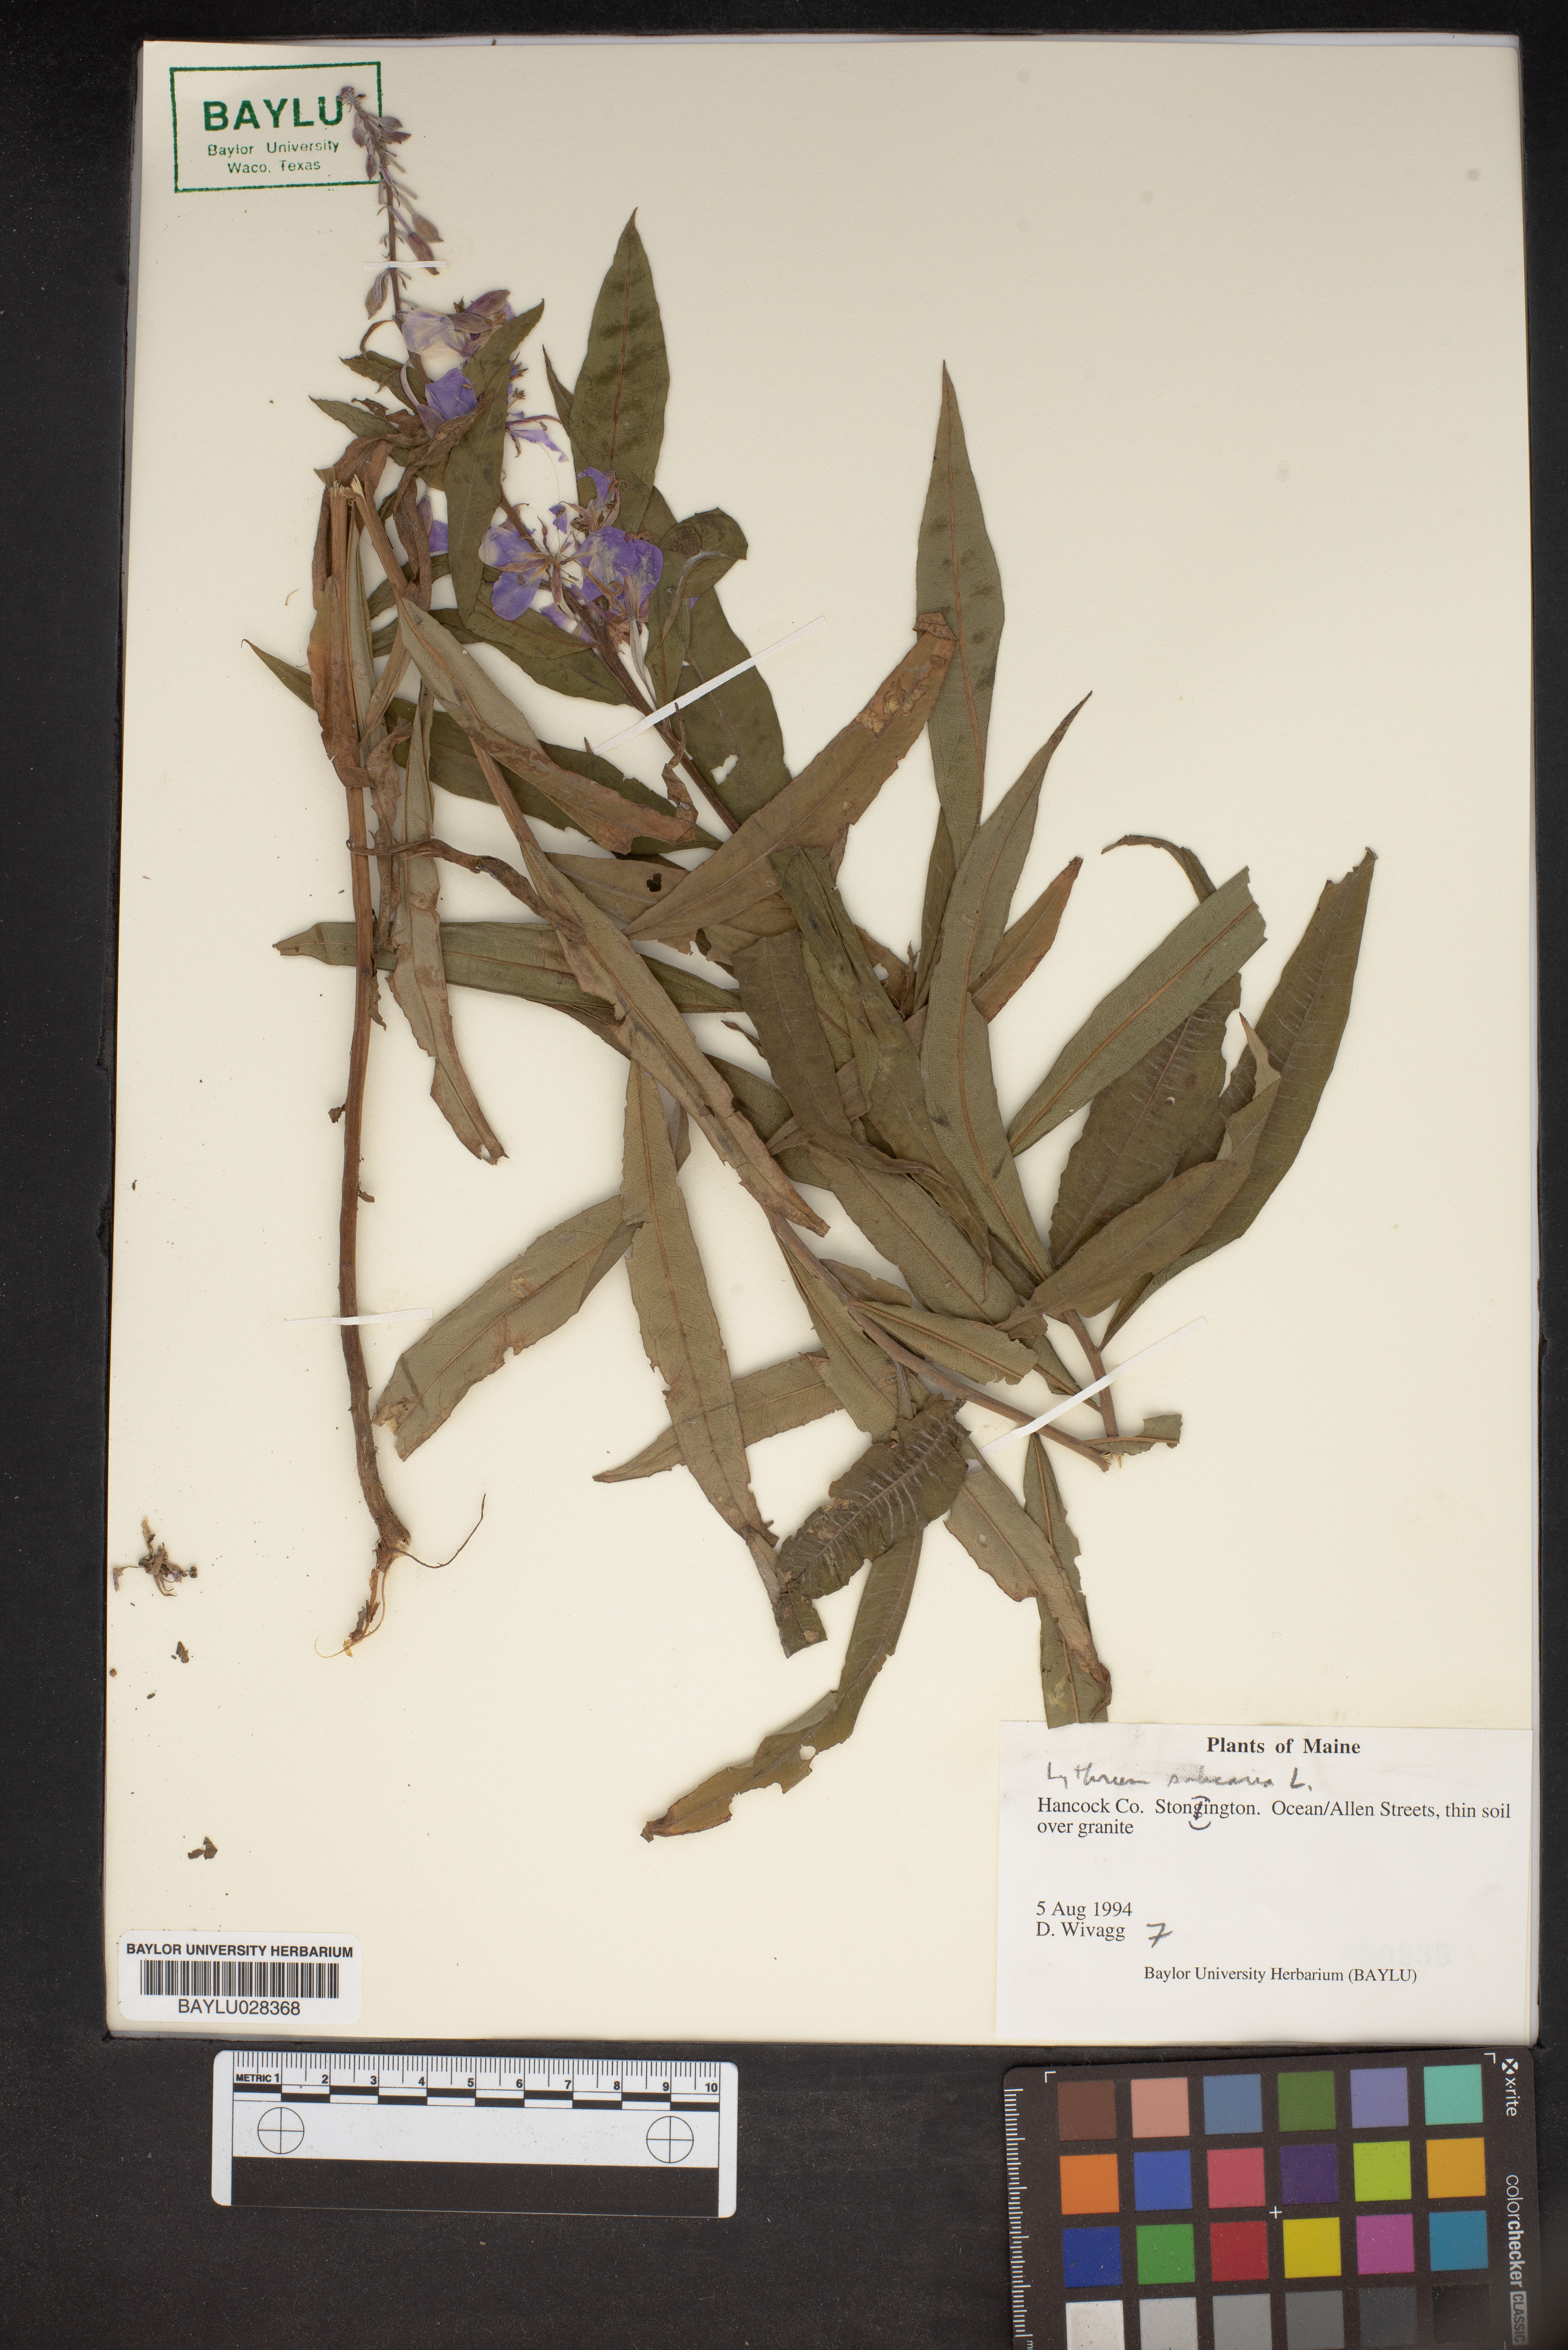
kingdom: Plantae
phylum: Tracheophyta
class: Magnoliopsida
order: Myrtales
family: Lythraceae
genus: Lithrum
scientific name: Lithrum
